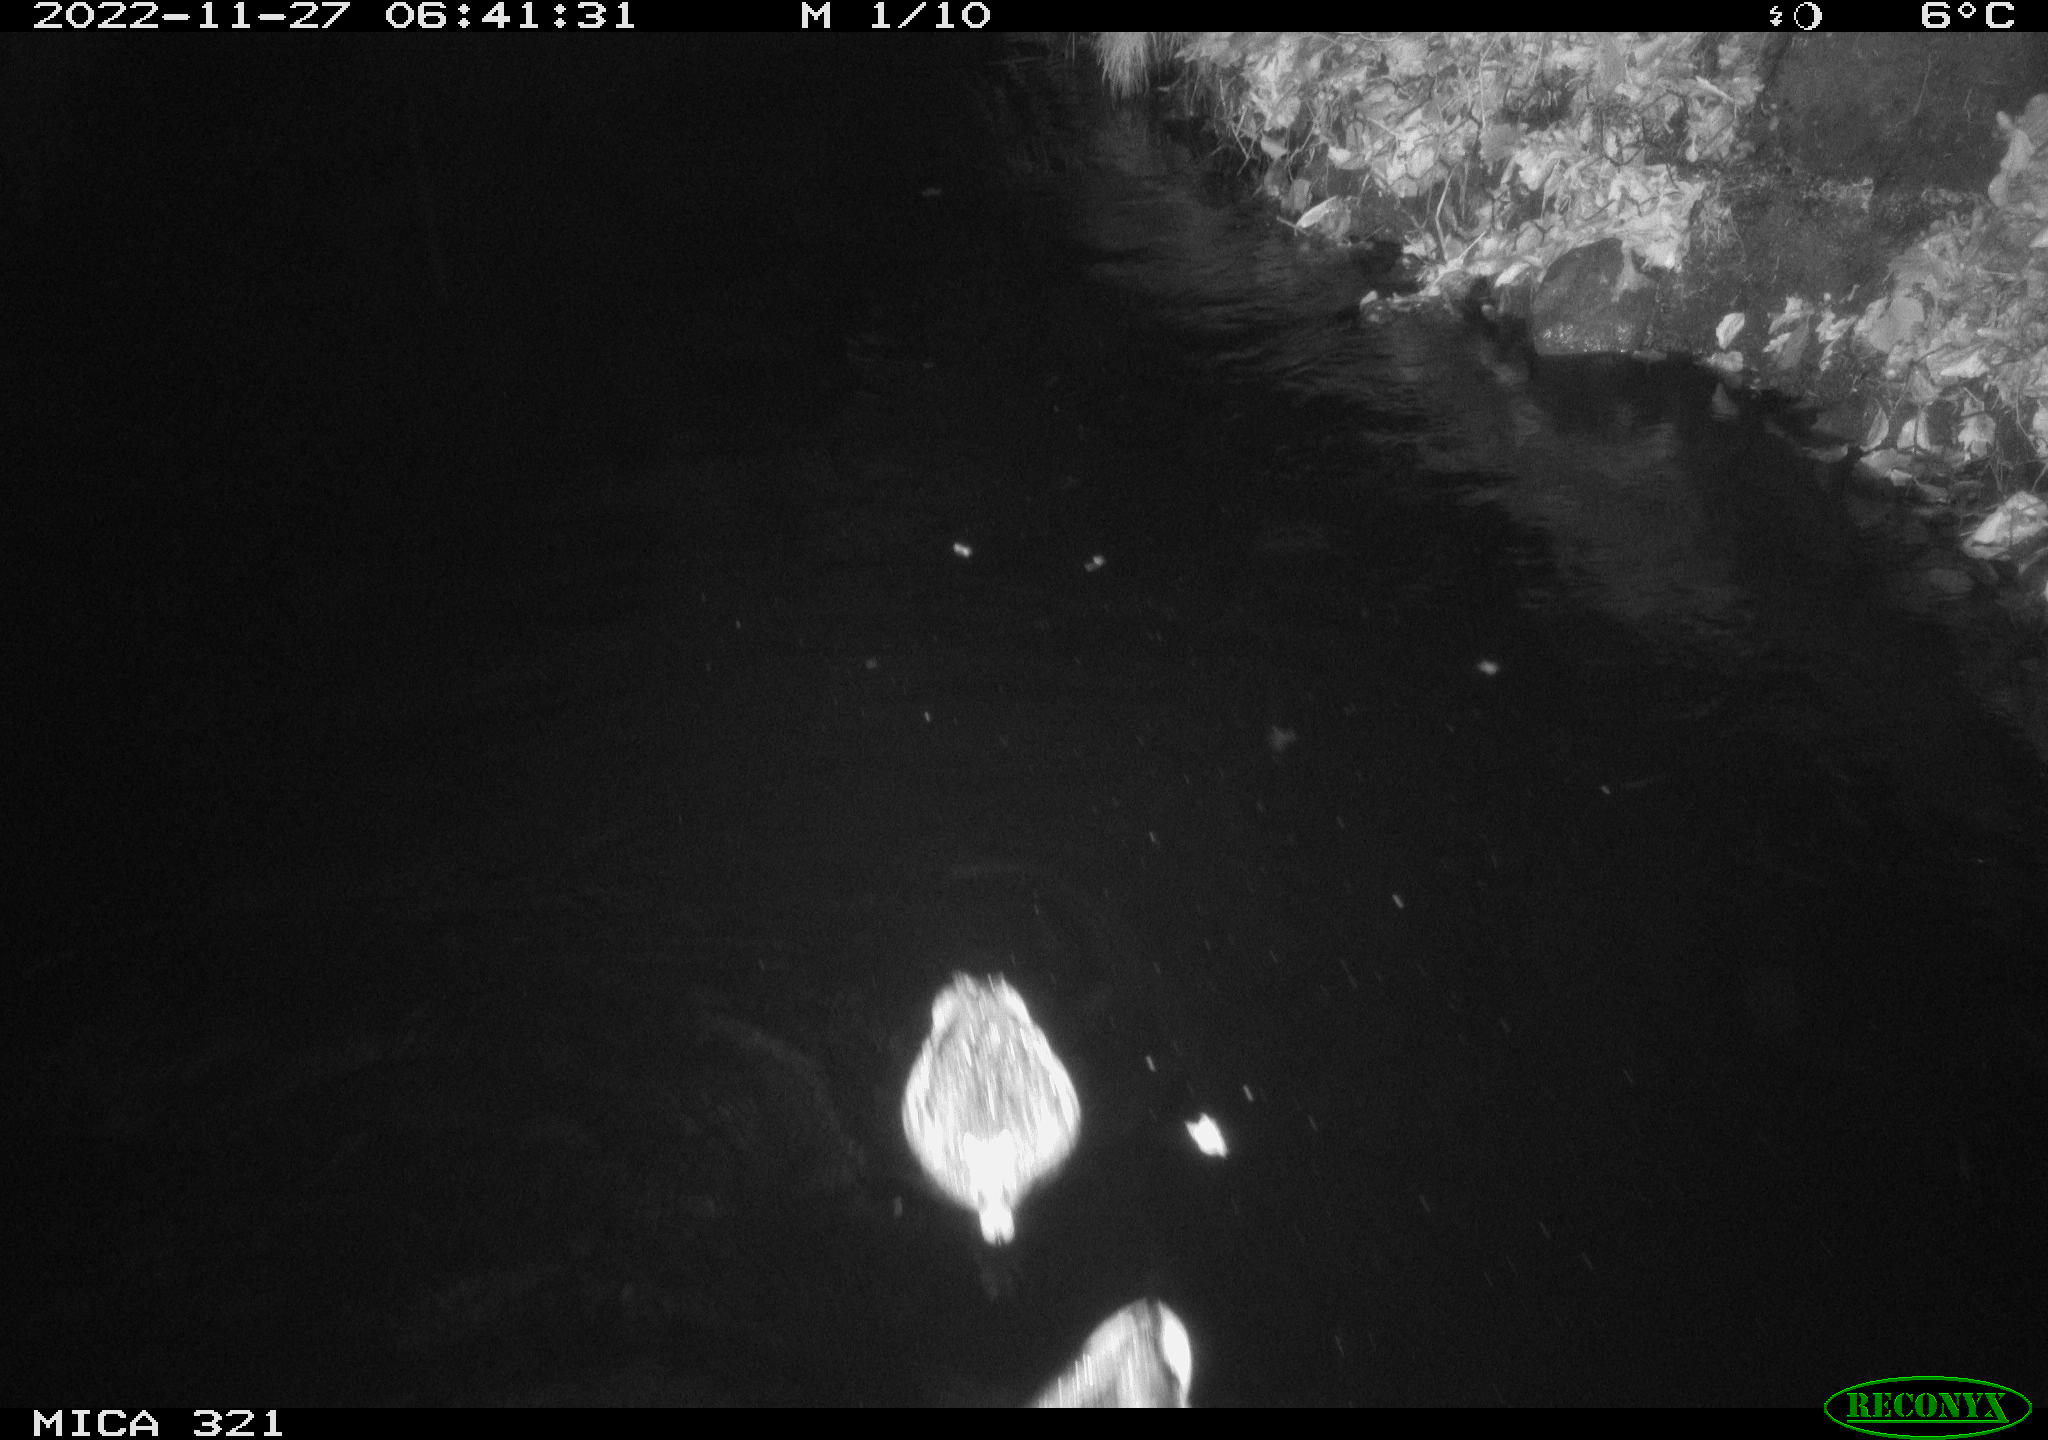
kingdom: Animalia
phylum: Chordata
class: Mammalia
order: Rodentia
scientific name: Rodentia
